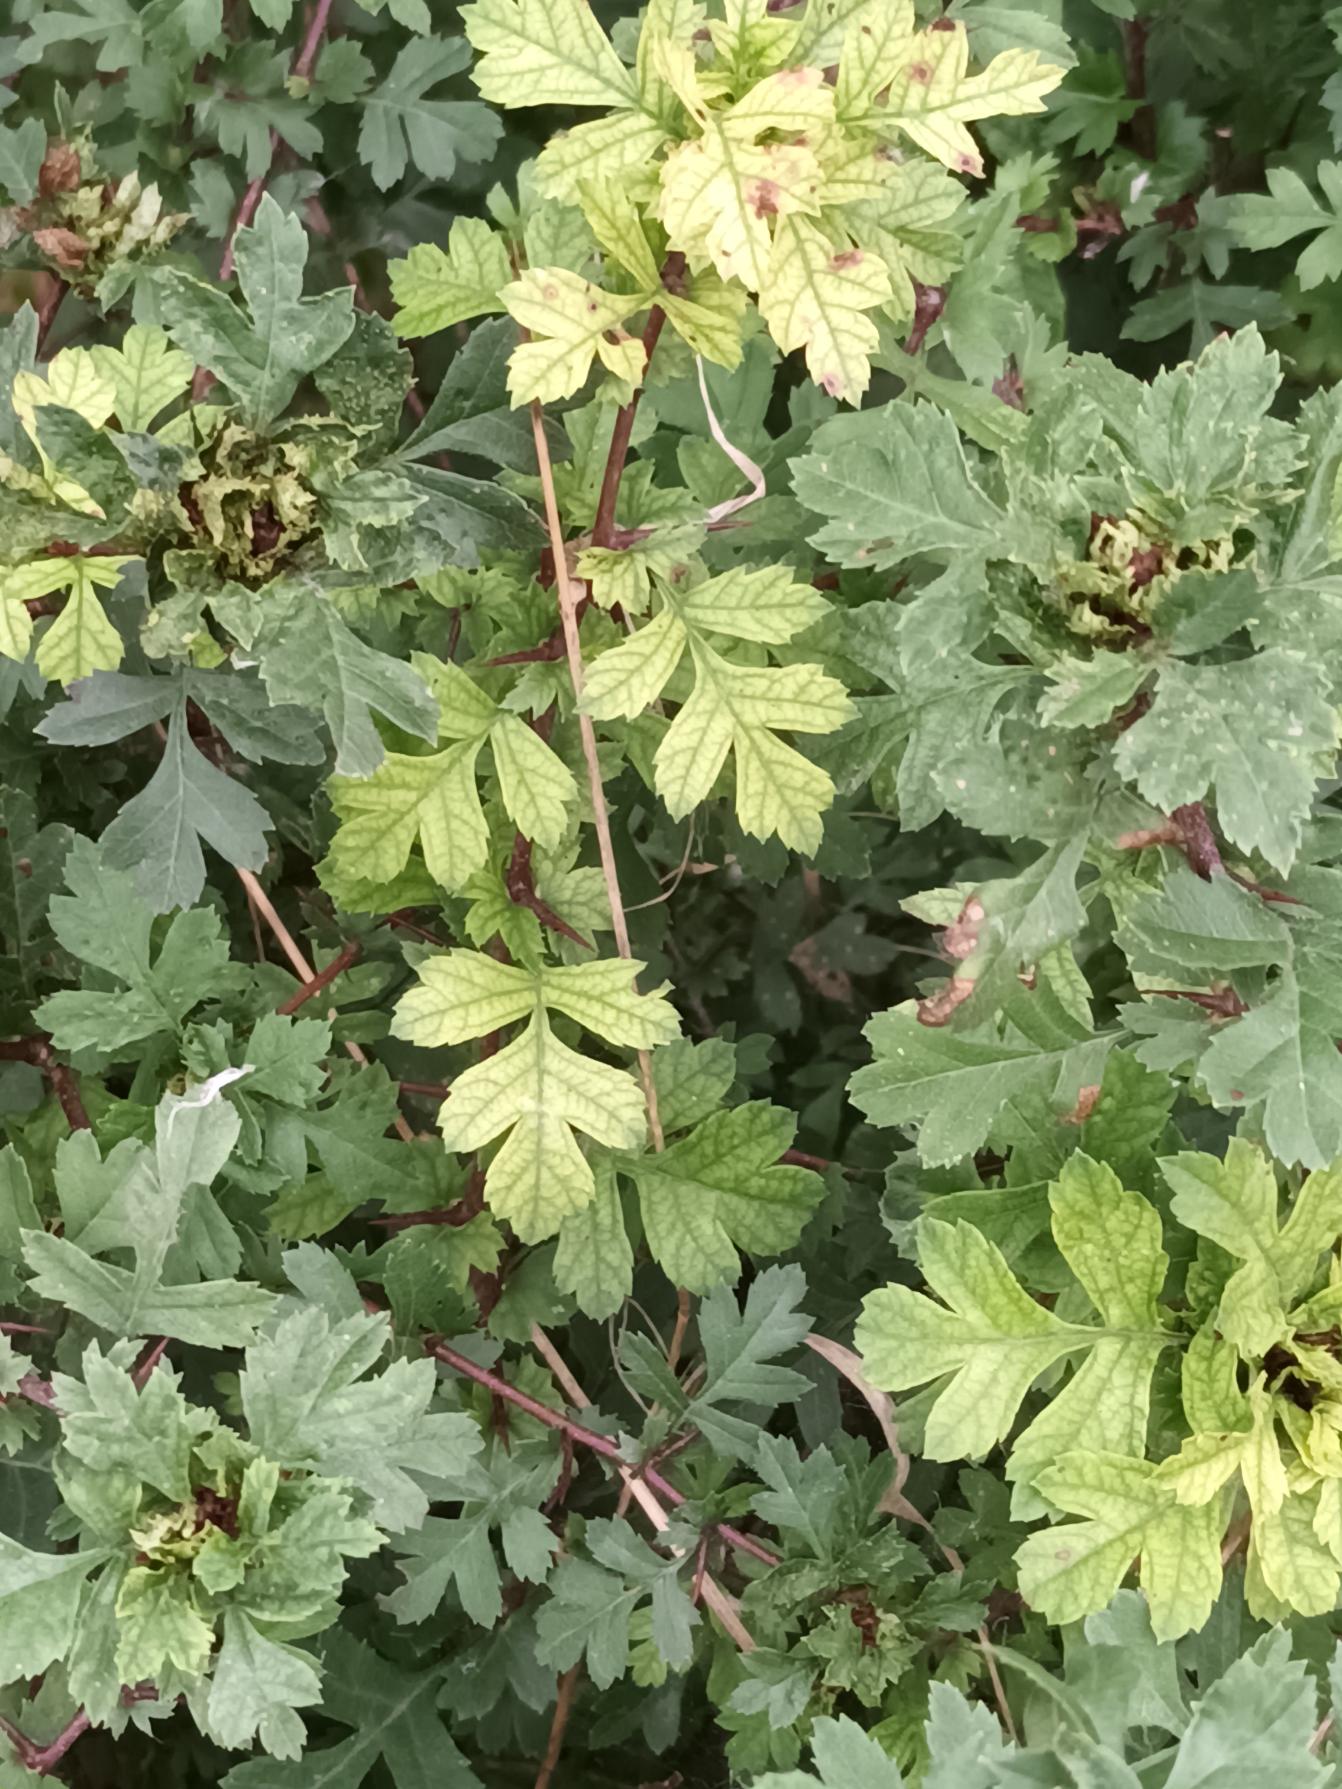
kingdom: Plantae
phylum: Tracheophyta
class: Magnoliopsida
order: Rosales
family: Rosaceae
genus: Crataegus
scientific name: Crataegus monogyna
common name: Engriflet hvidtjørn
